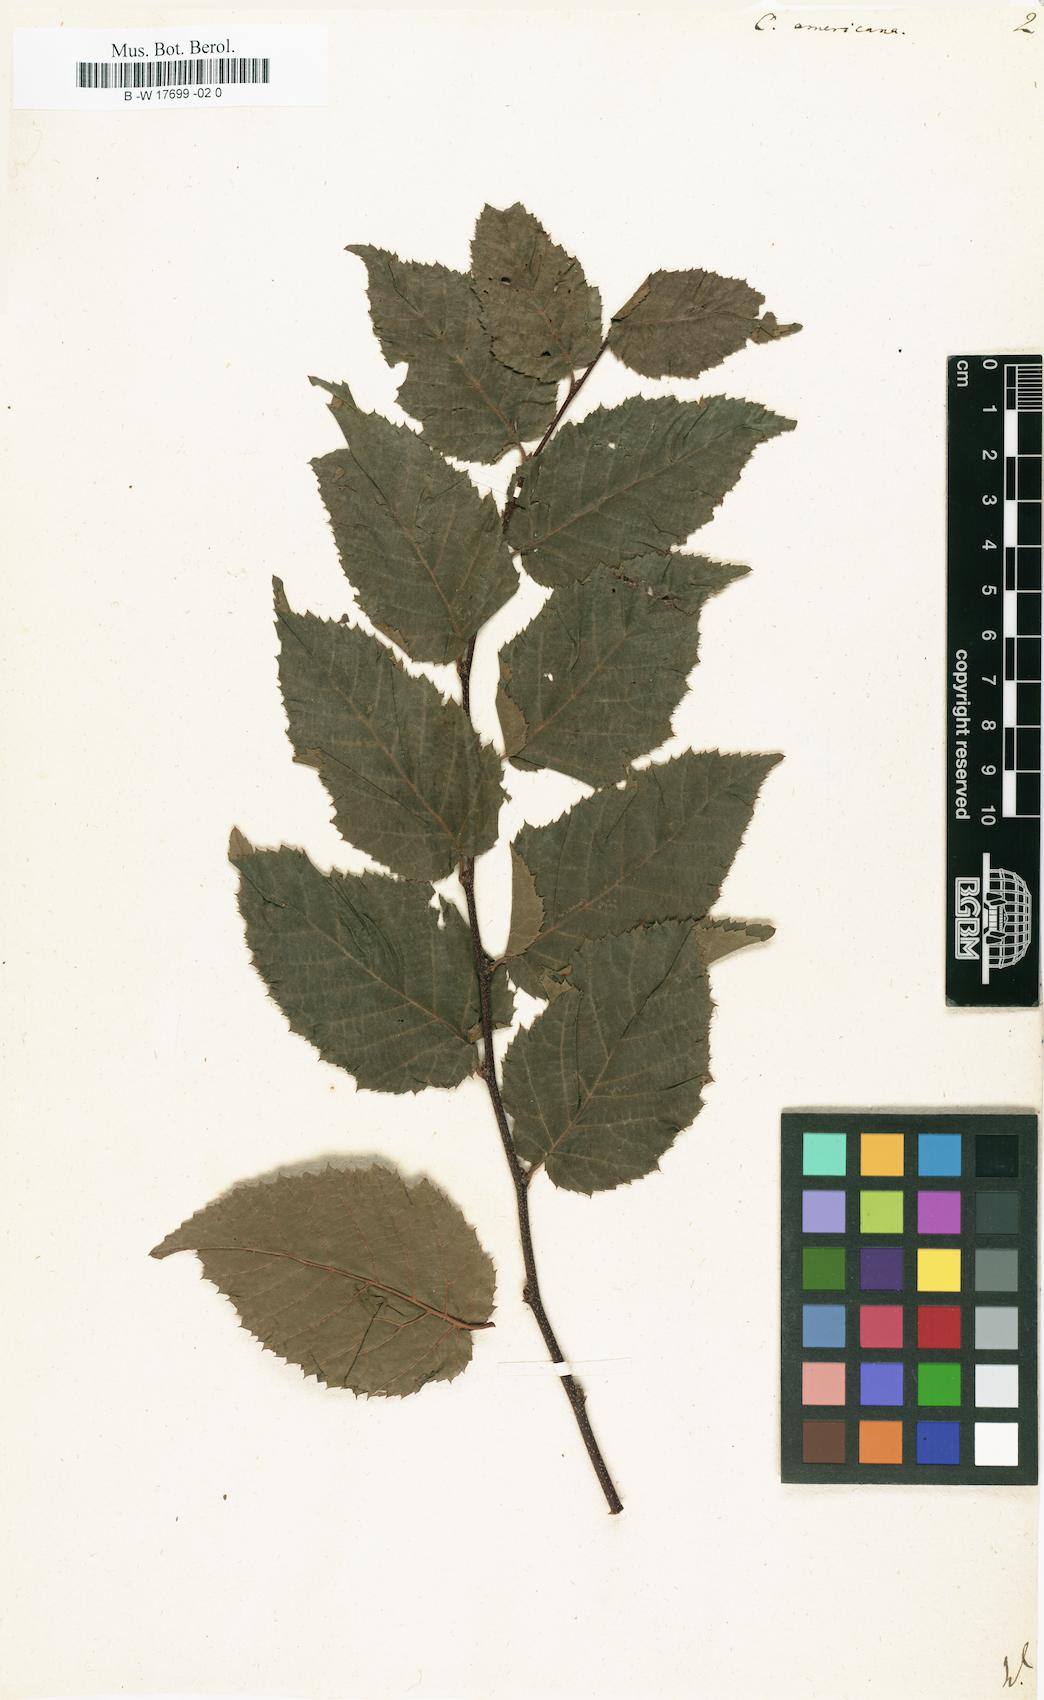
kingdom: Plantae
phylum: Tracheophyta
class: Magnoliopsida
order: Fagales
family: Betulaceae
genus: Carpinus
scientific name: Carpinus caroliniana
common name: American hornbeam
